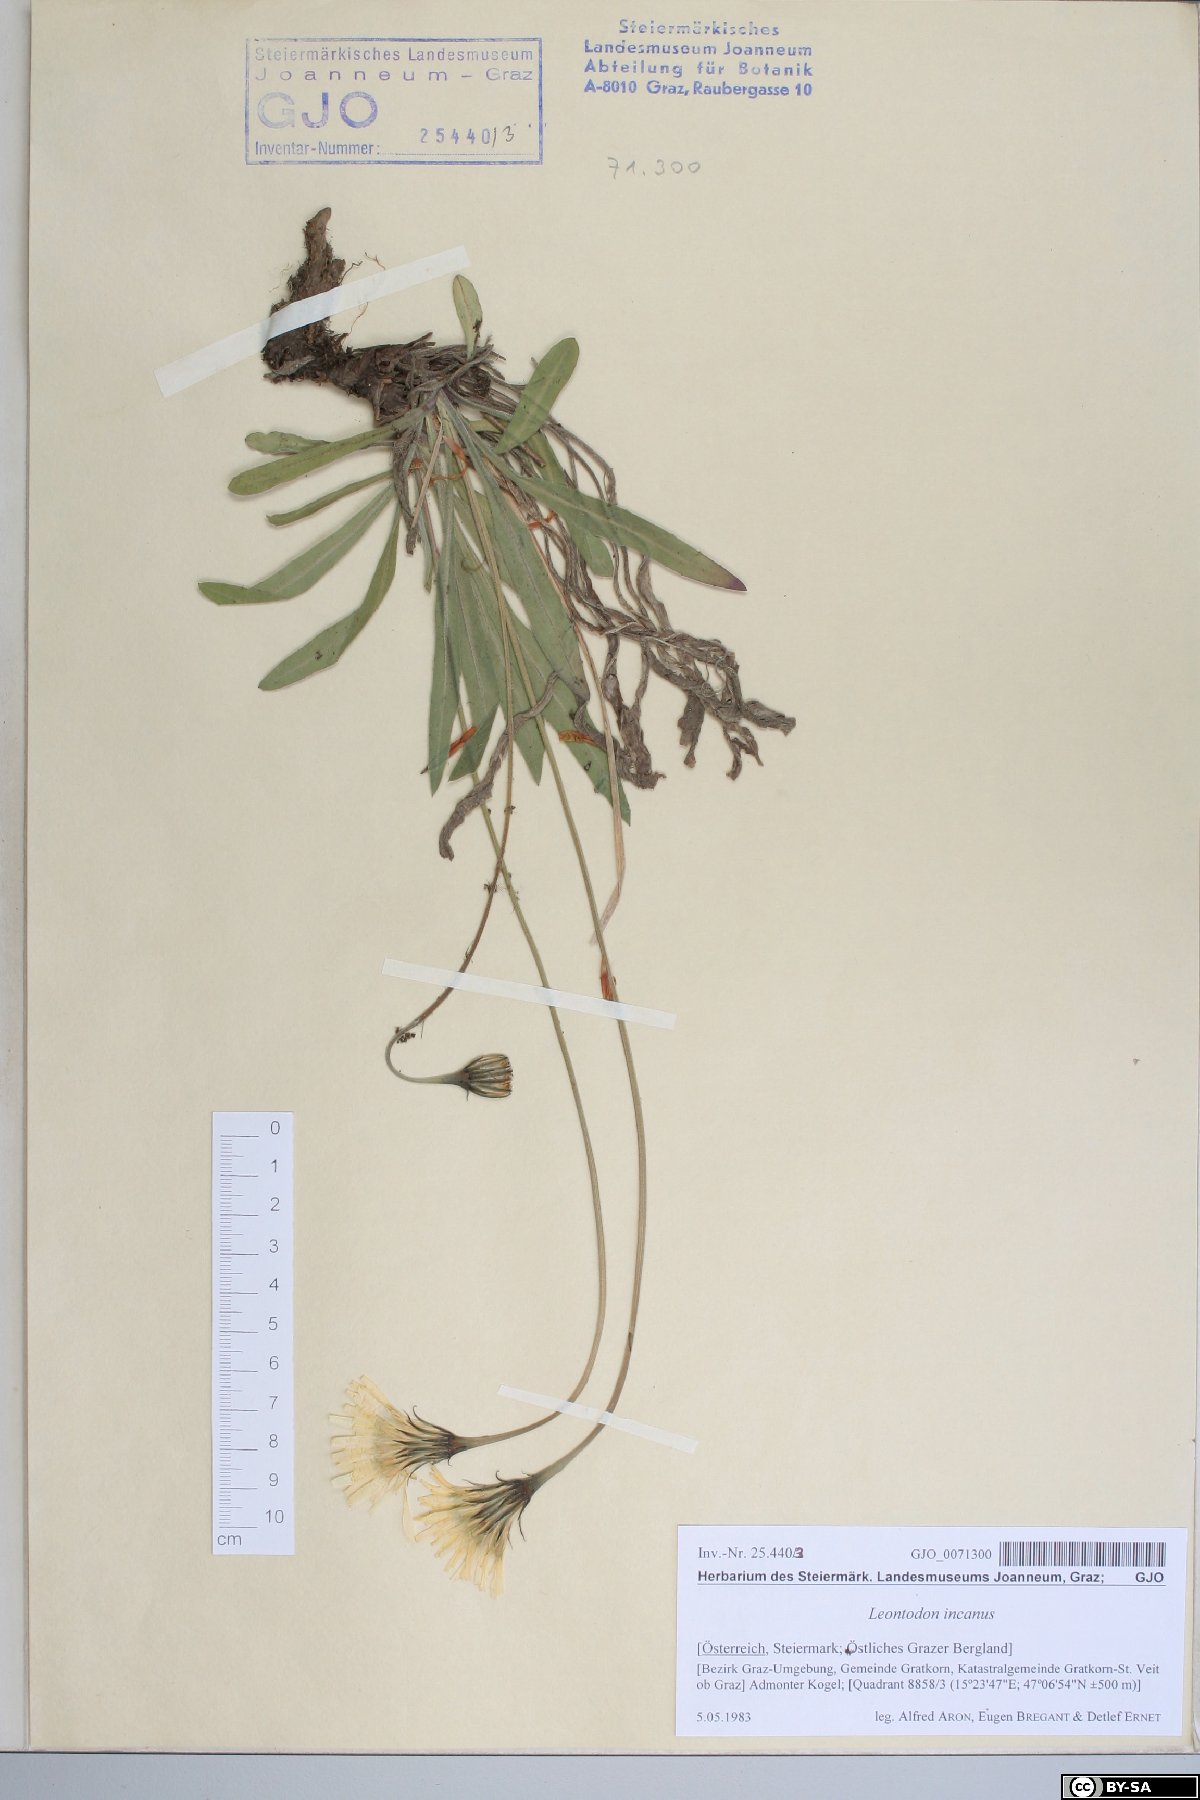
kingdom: Plantae
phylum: Tracheophyta
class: Magnoliopsida
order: Asterales
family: Asteraceae
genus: Leontodon
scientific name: Leontodon incanus
